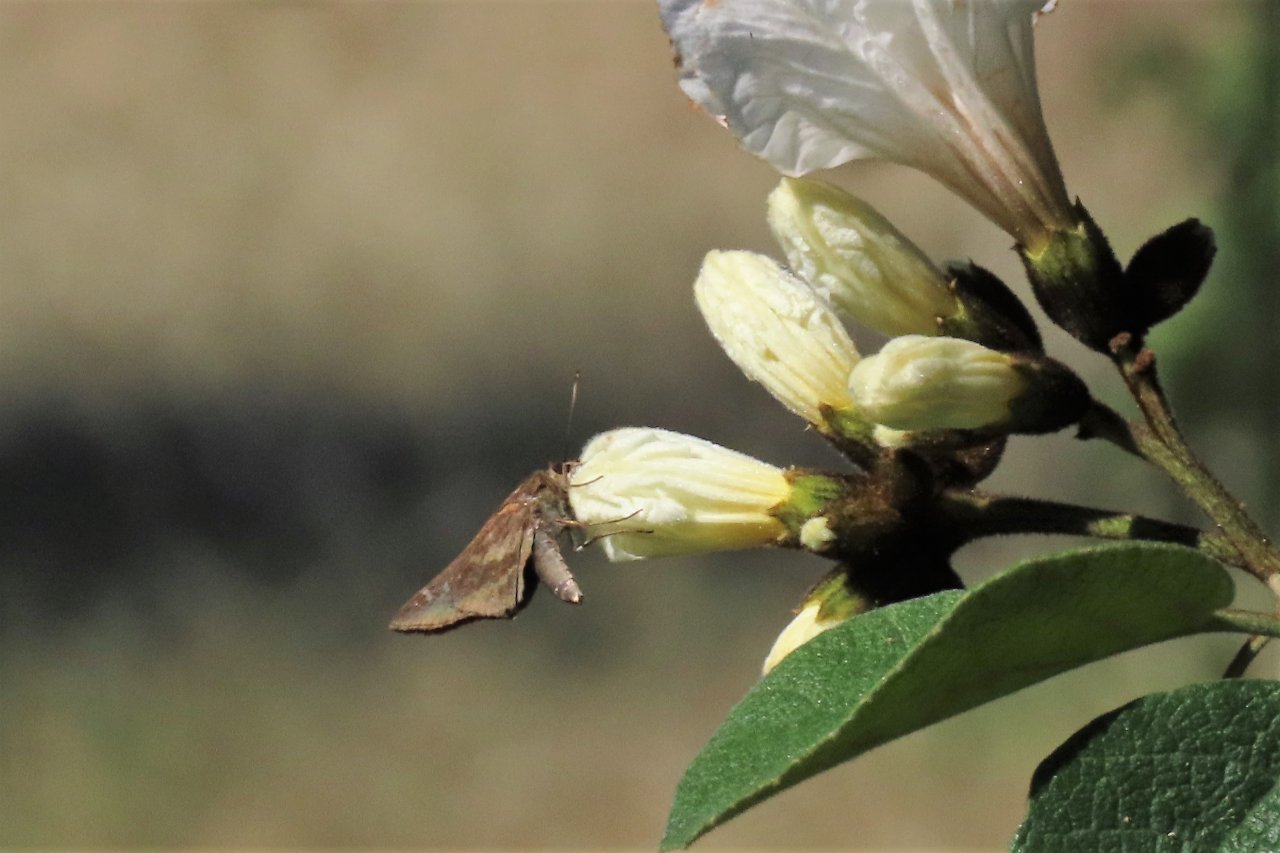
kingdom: Animalia
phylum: Arthropoda
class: Insecta
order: Lepidoptera
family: Hesperiidae
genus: Lerema
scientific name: Lerema accius
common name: Clouded Skipper
